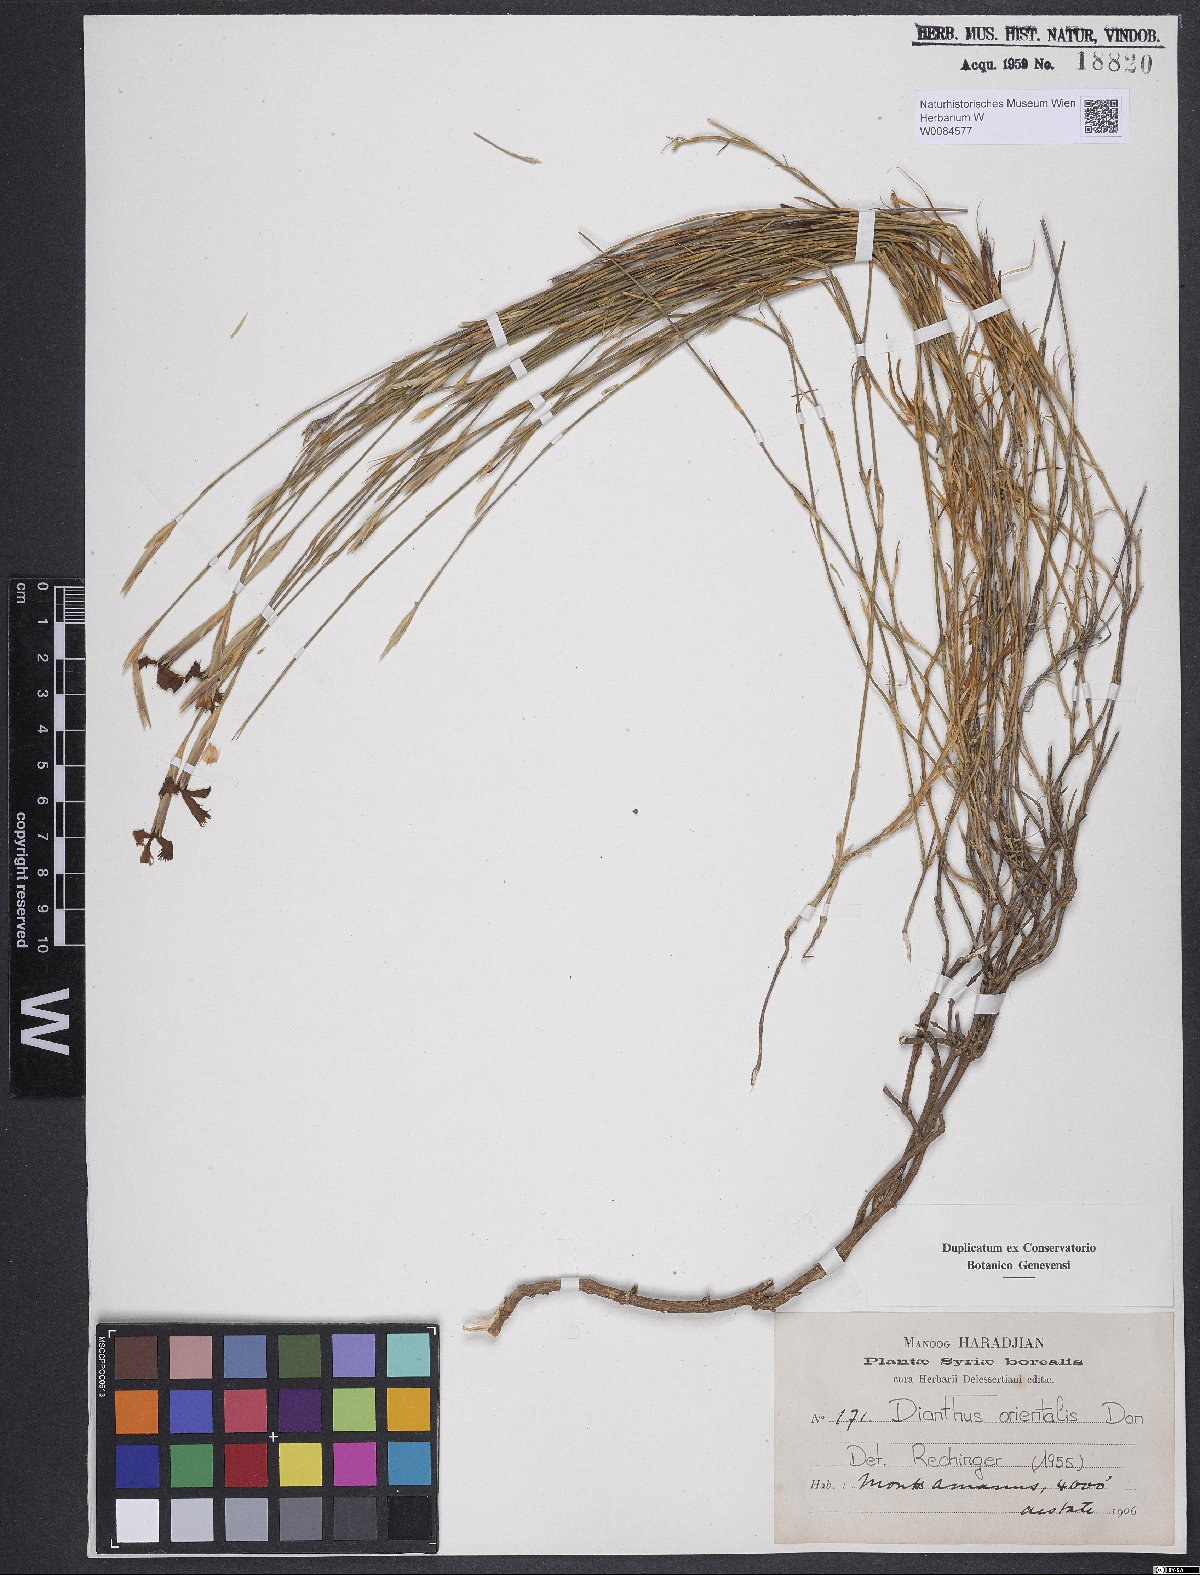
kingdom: Plantae
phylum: Tracheophyta
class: Magnoliopsida
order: Caryophyllales
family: Caryophyllaceae
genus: Dianthus
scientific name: Dianthus orientalis
